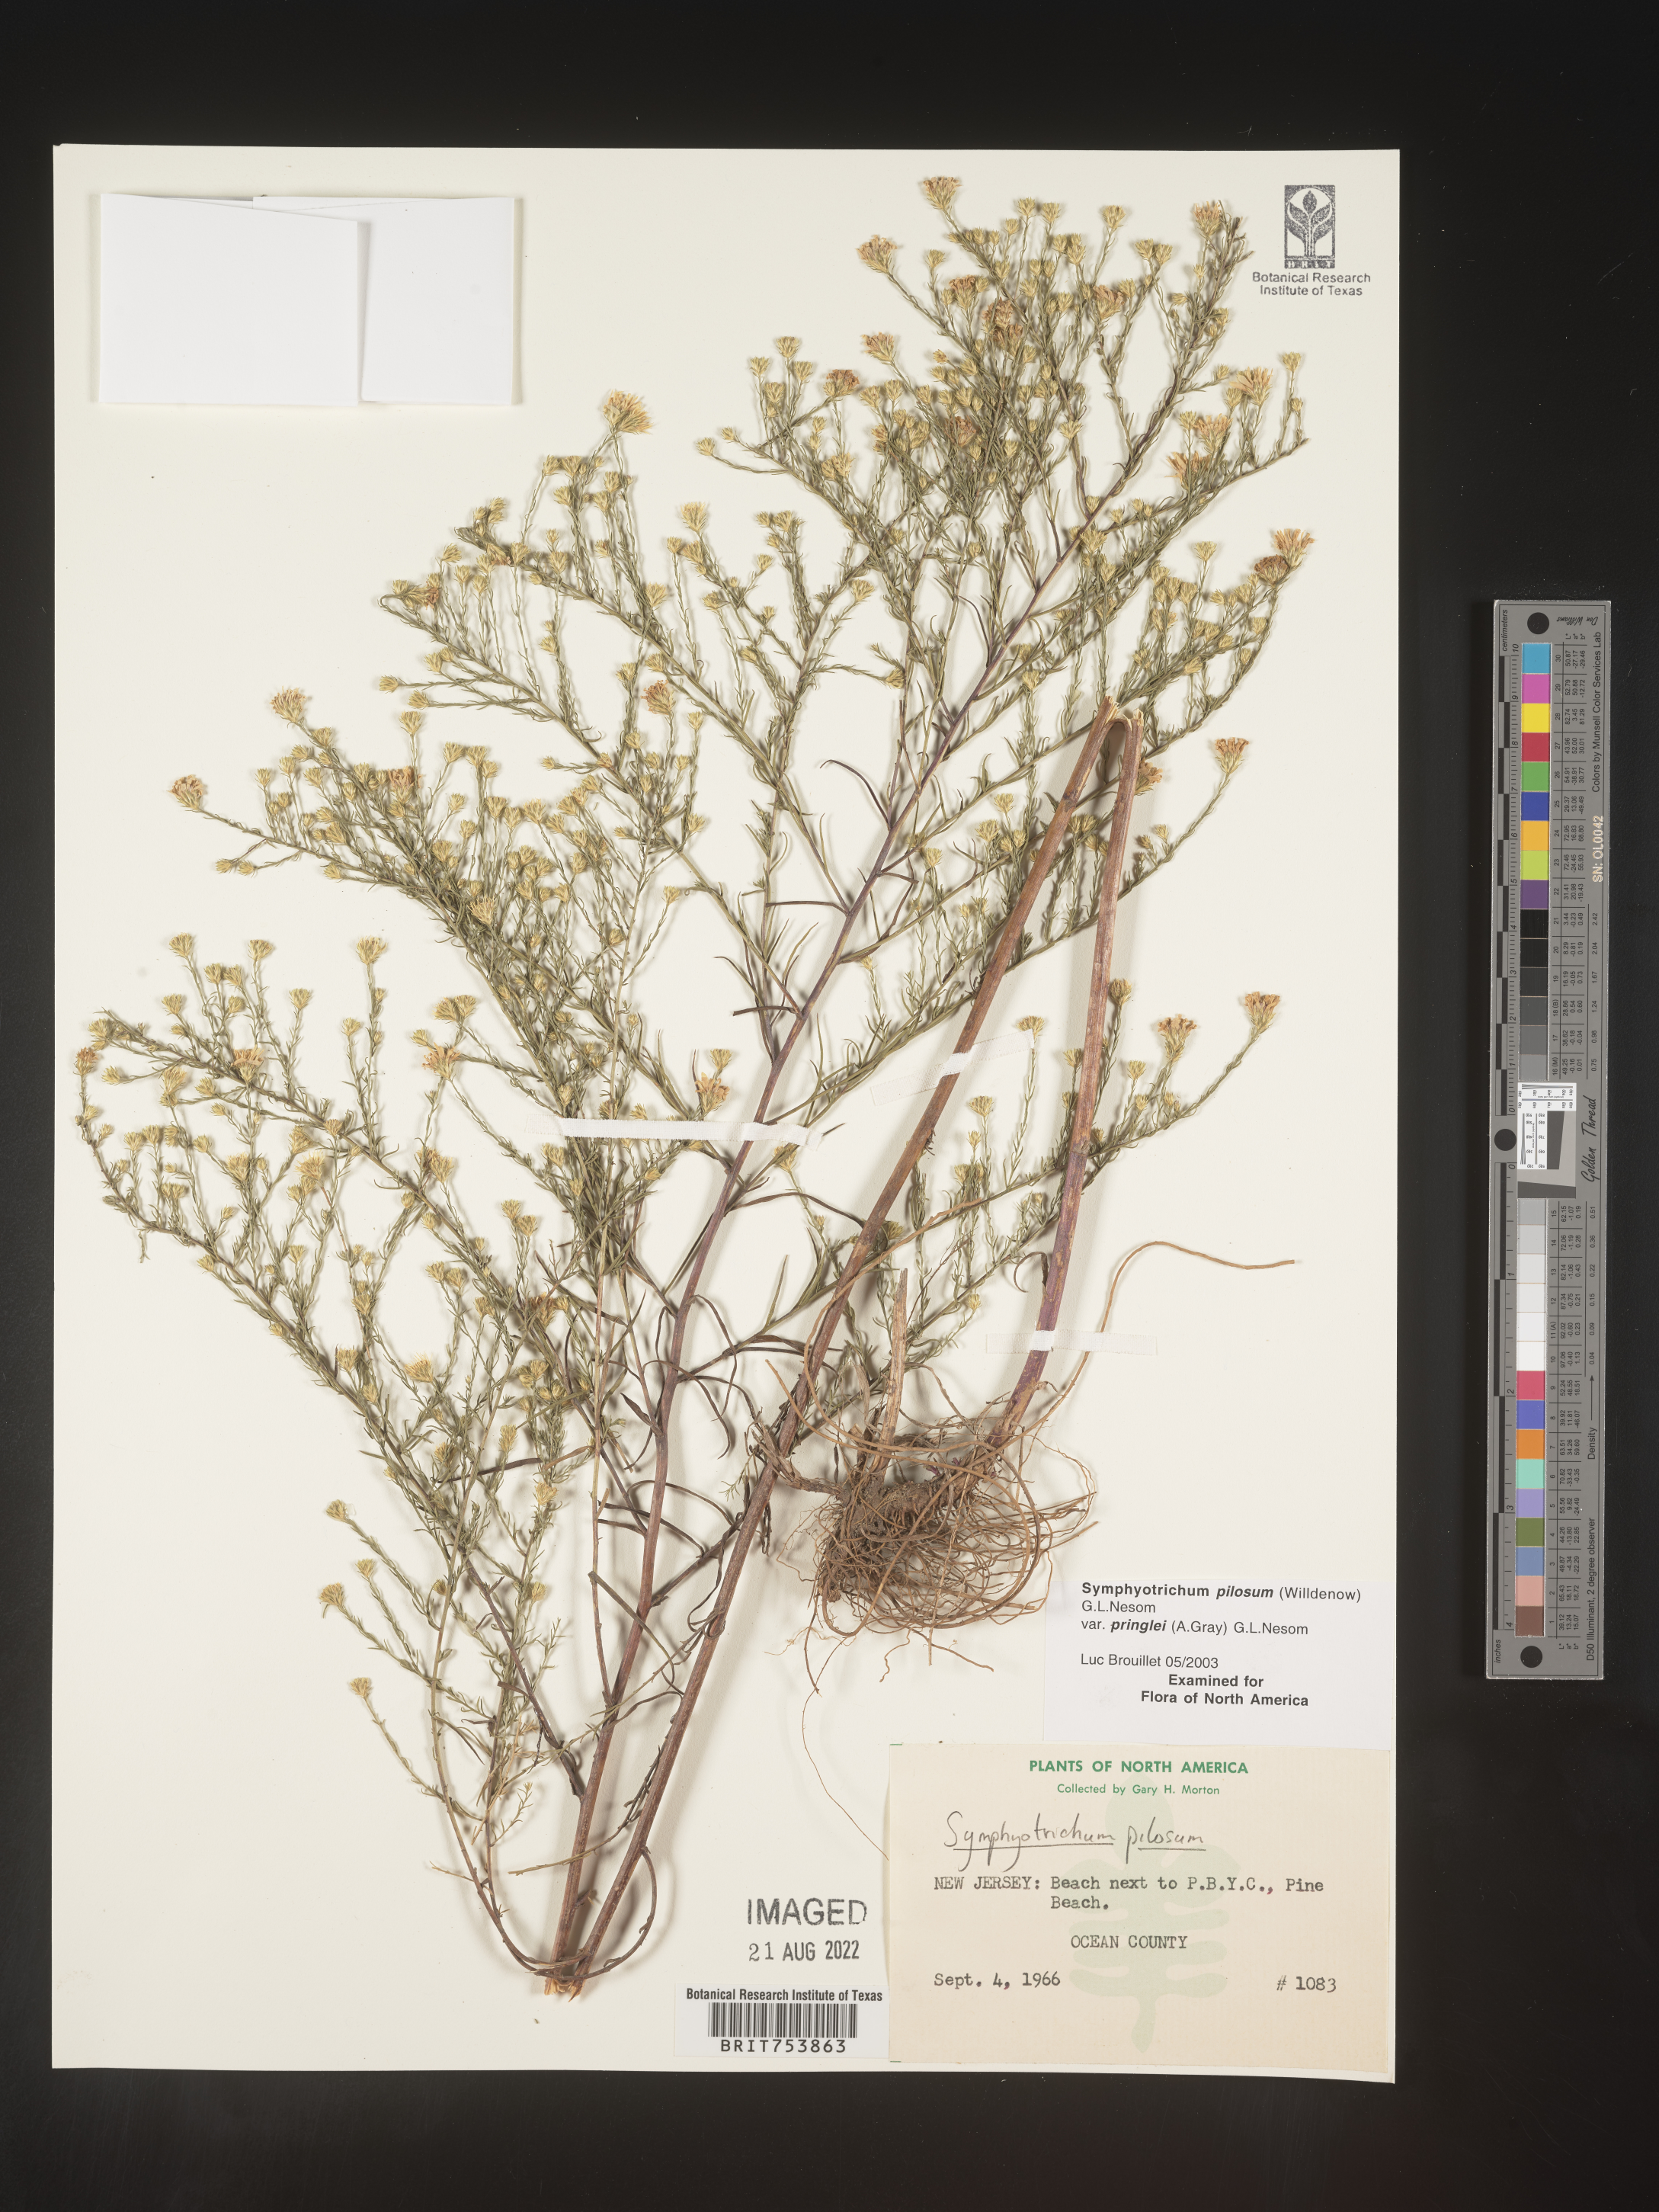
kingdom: Plantae
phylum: Tracheophyta
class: Magnoliopsida
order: Asterales
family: Asteraceae
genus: Symphyotrichum
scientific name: Symphyotrichum pilosum
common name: Awl aster
